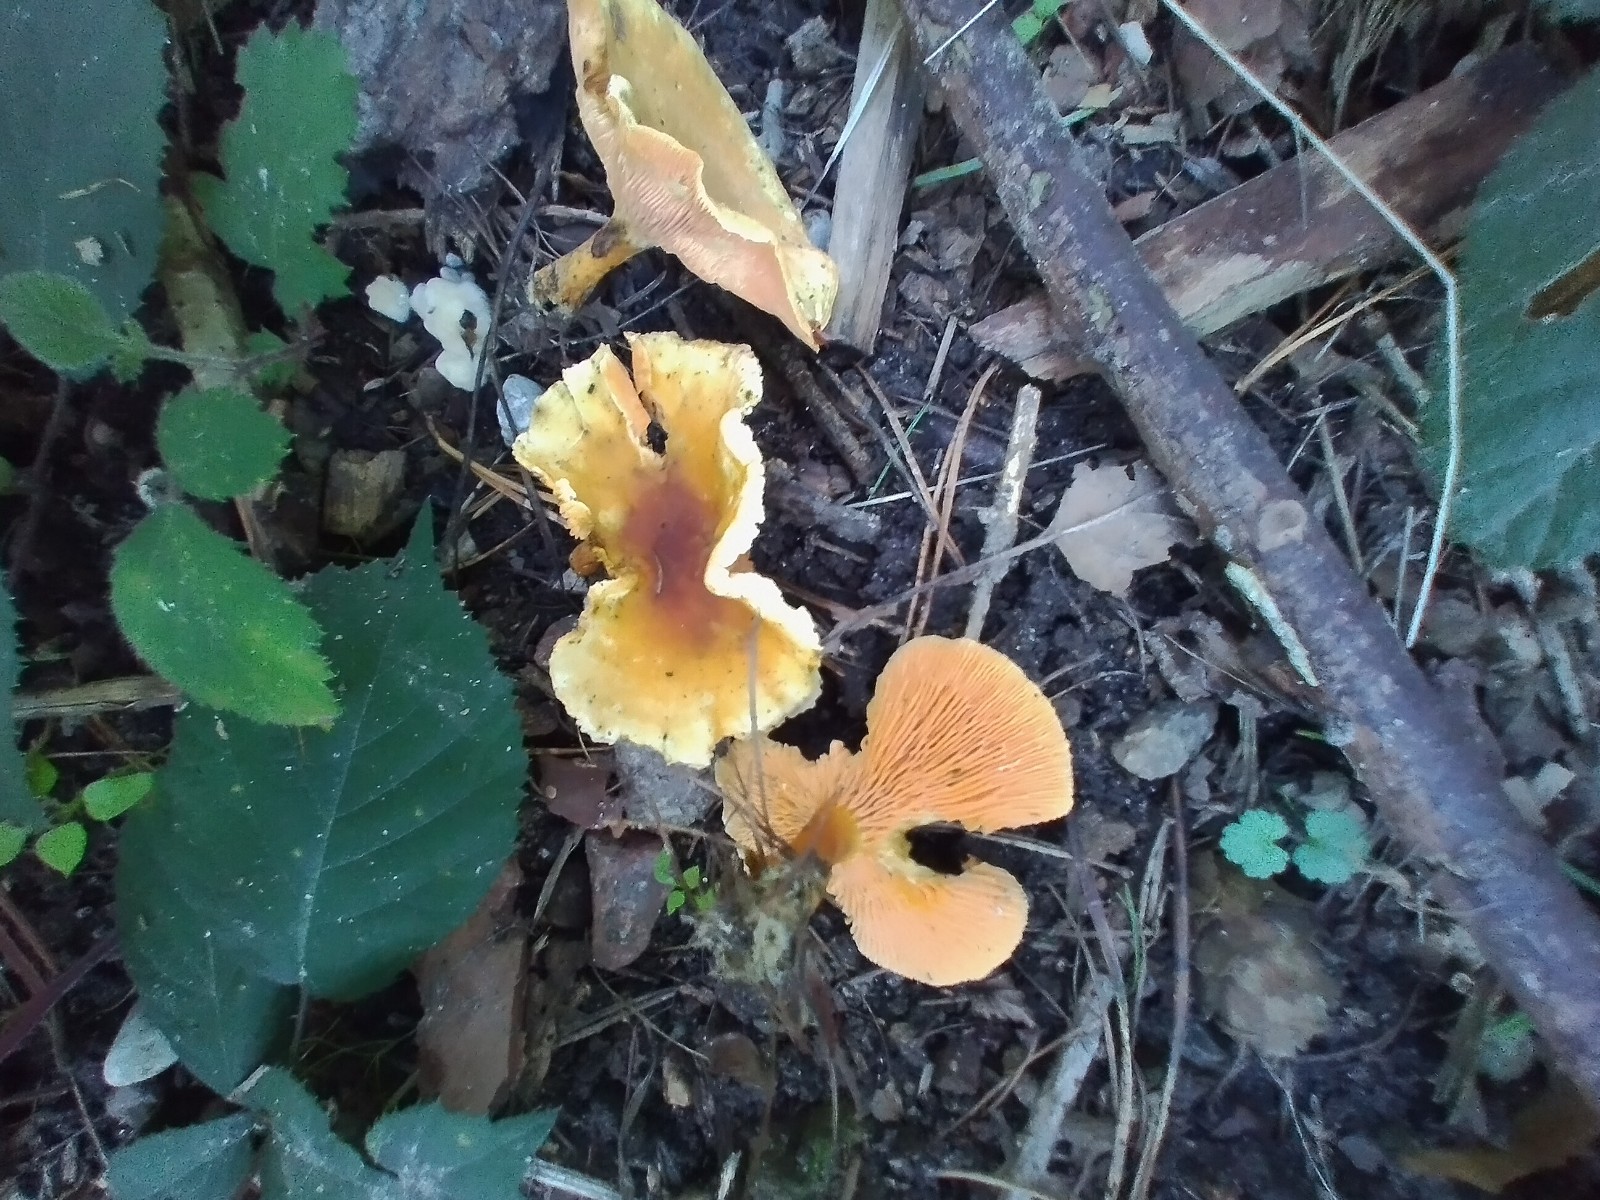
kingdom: Fungi
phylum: Basidiomycota
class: Agaricomycetes
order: Boletales
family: Hygrophoropsidaceae
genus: Hygrophoropsis
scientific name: Hygrophoropsis aurantiaca
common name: almindelig orangekantarel
